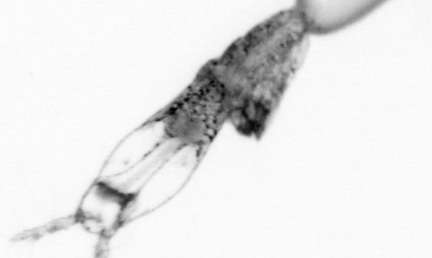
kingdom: Animalia
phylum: Arthropoda
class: Copepoda
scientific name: Copepoda
